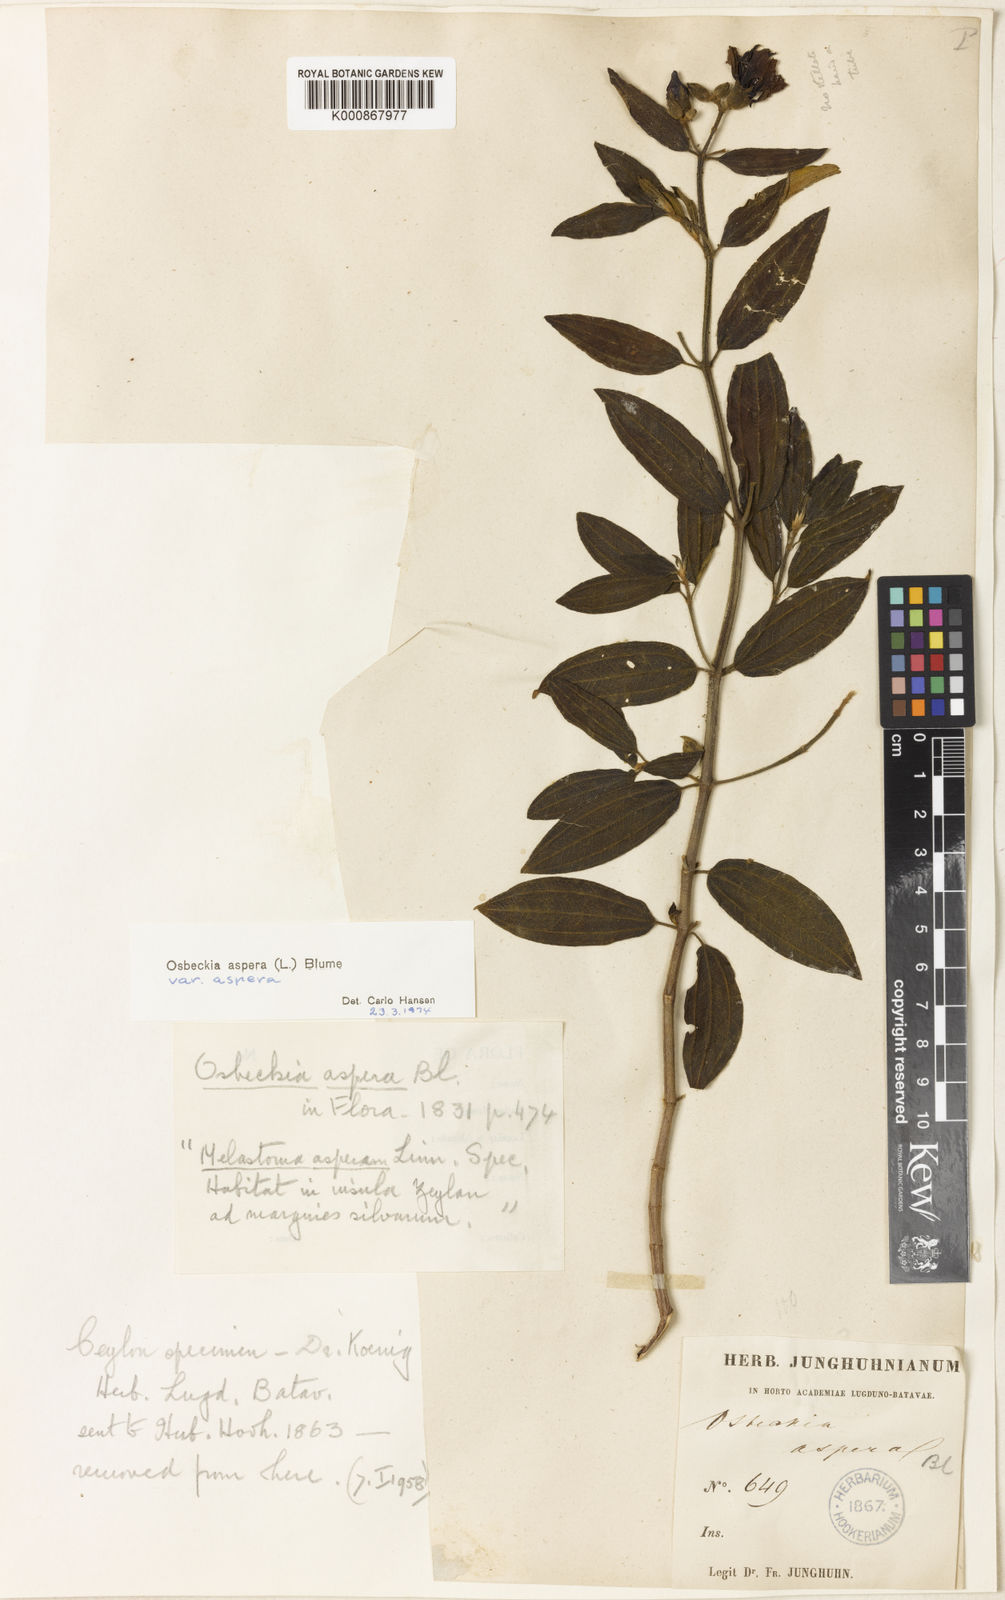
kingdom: Plantae
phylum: Tracheophyta
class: Magnoliopsida
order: Myrtales
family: Melastomataceae
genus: Osbeckia
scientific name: Osbeckia aspera
